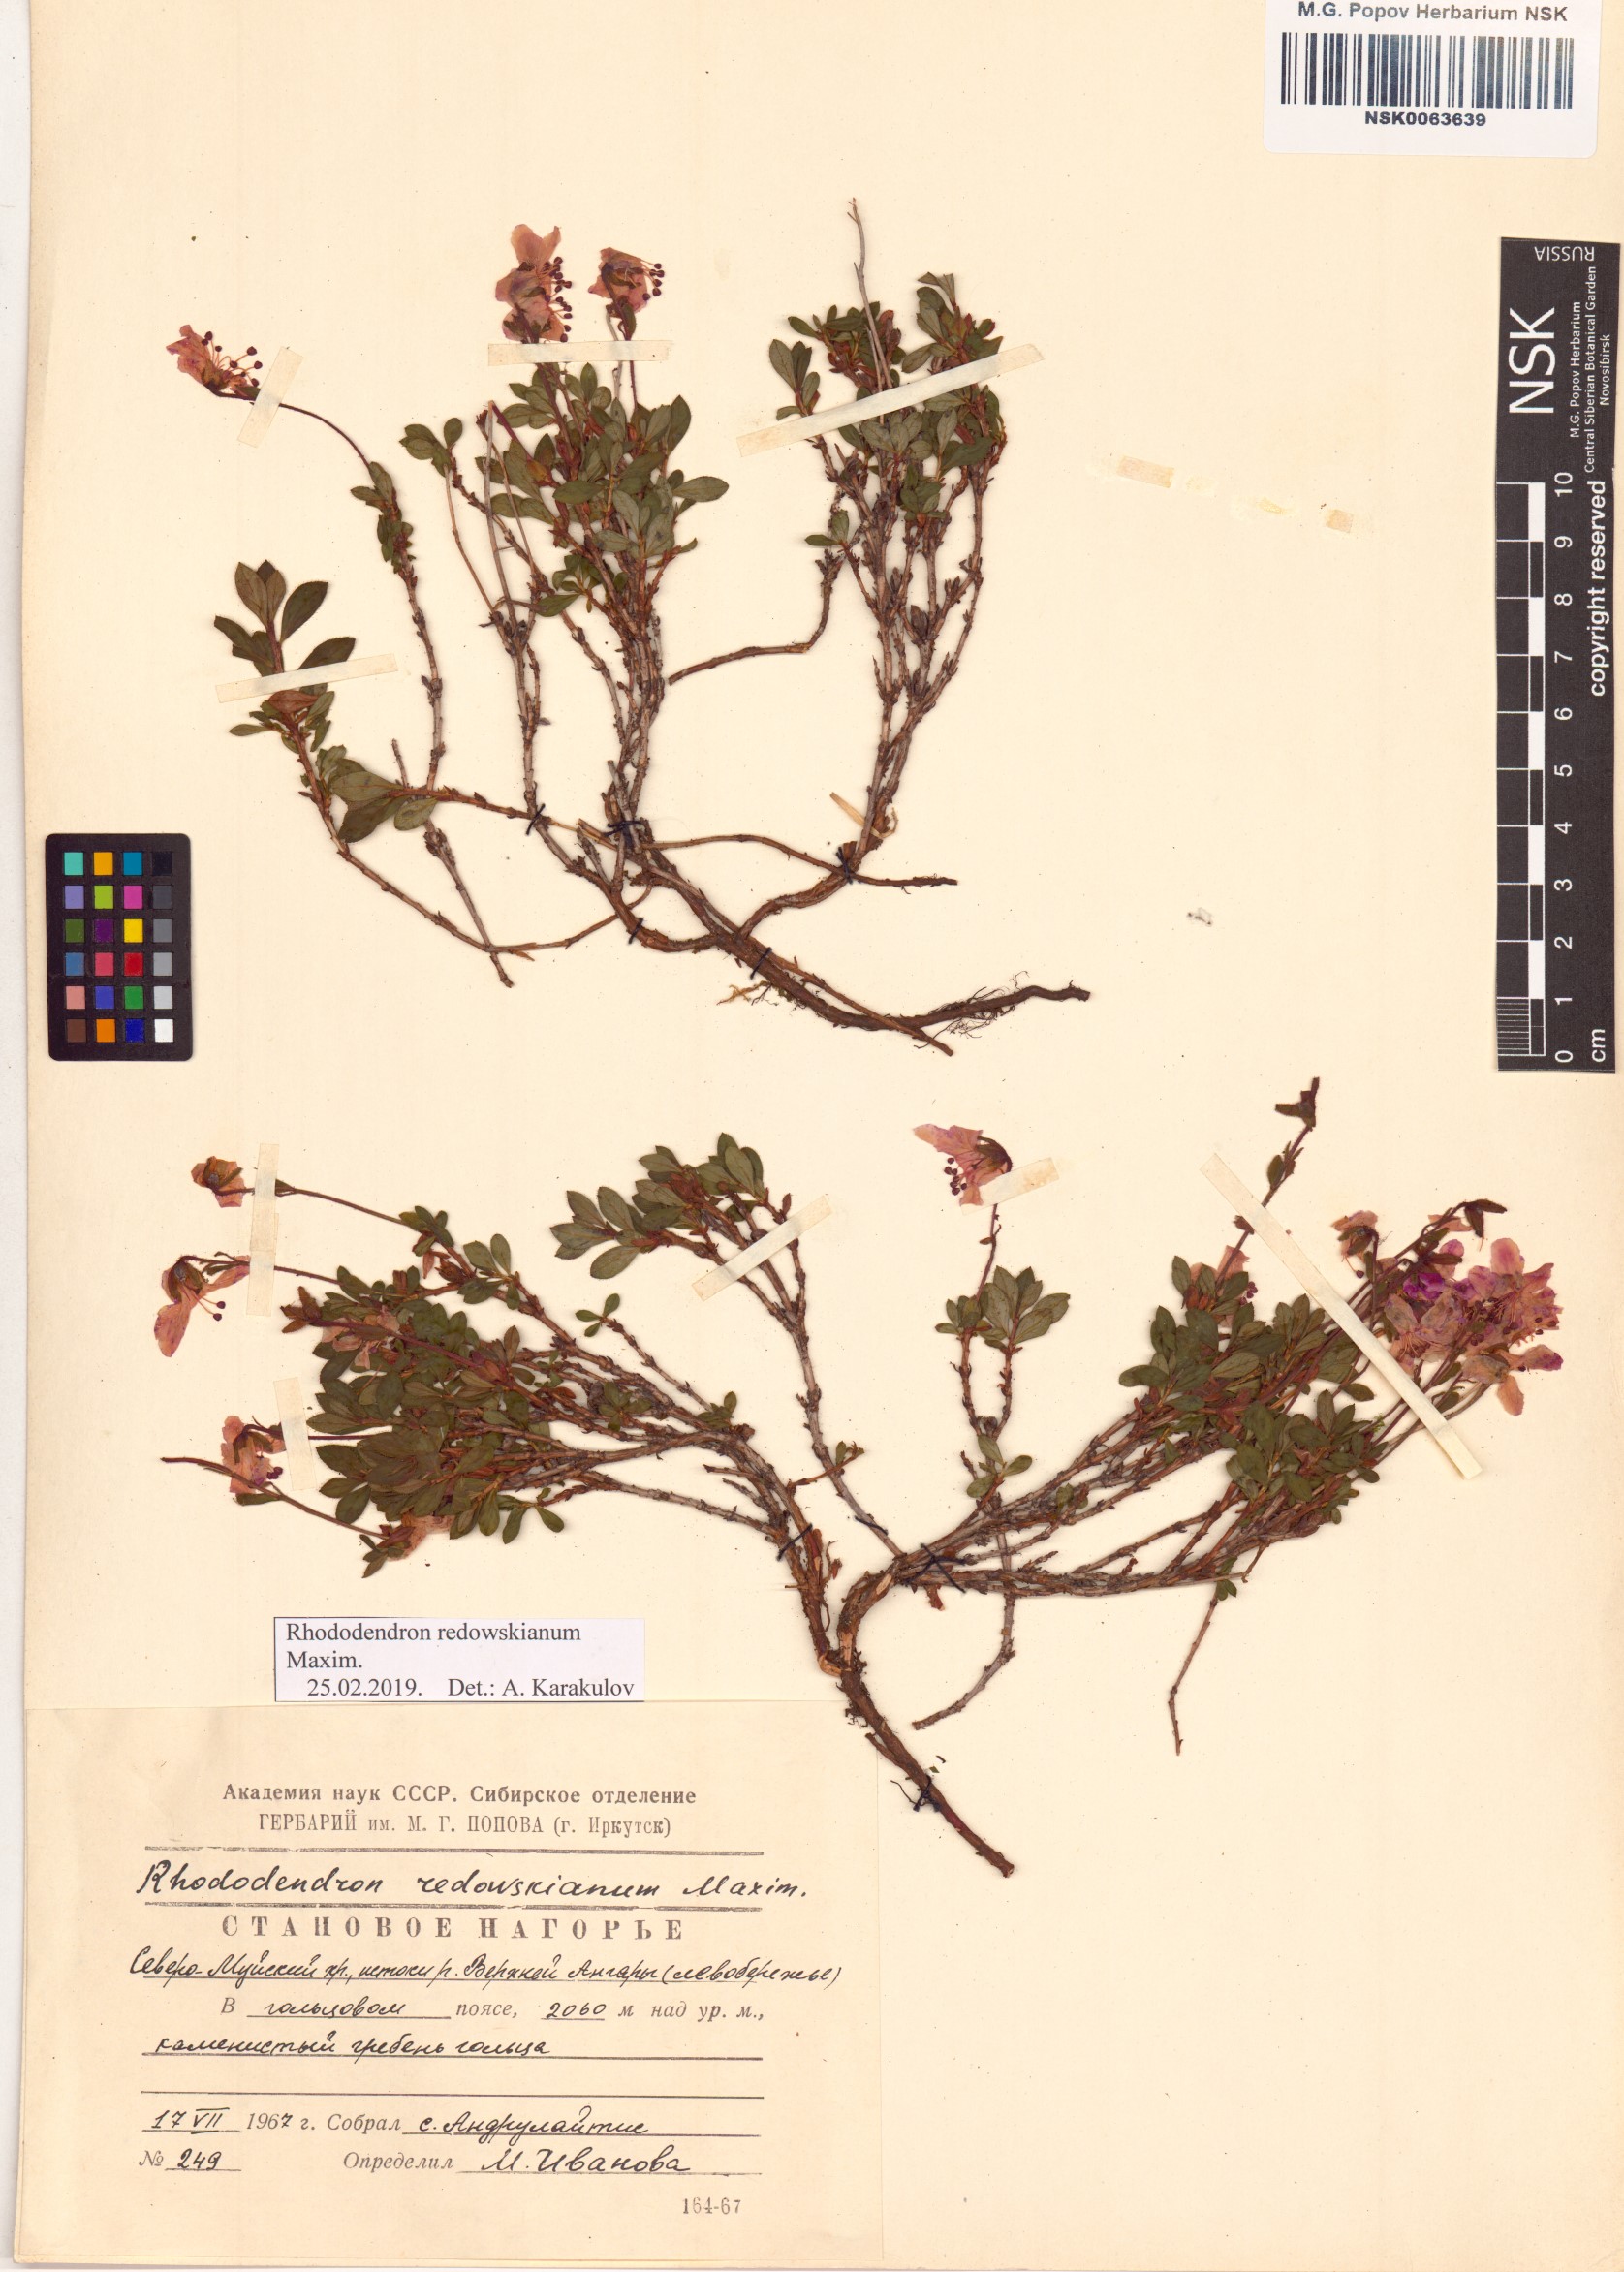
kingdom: Plantae
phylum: Tracheophyta
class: Magnoliopsida
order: Ericales
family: Ericaceae
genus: Rhododendron
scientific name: Rhododendron redowskianum
